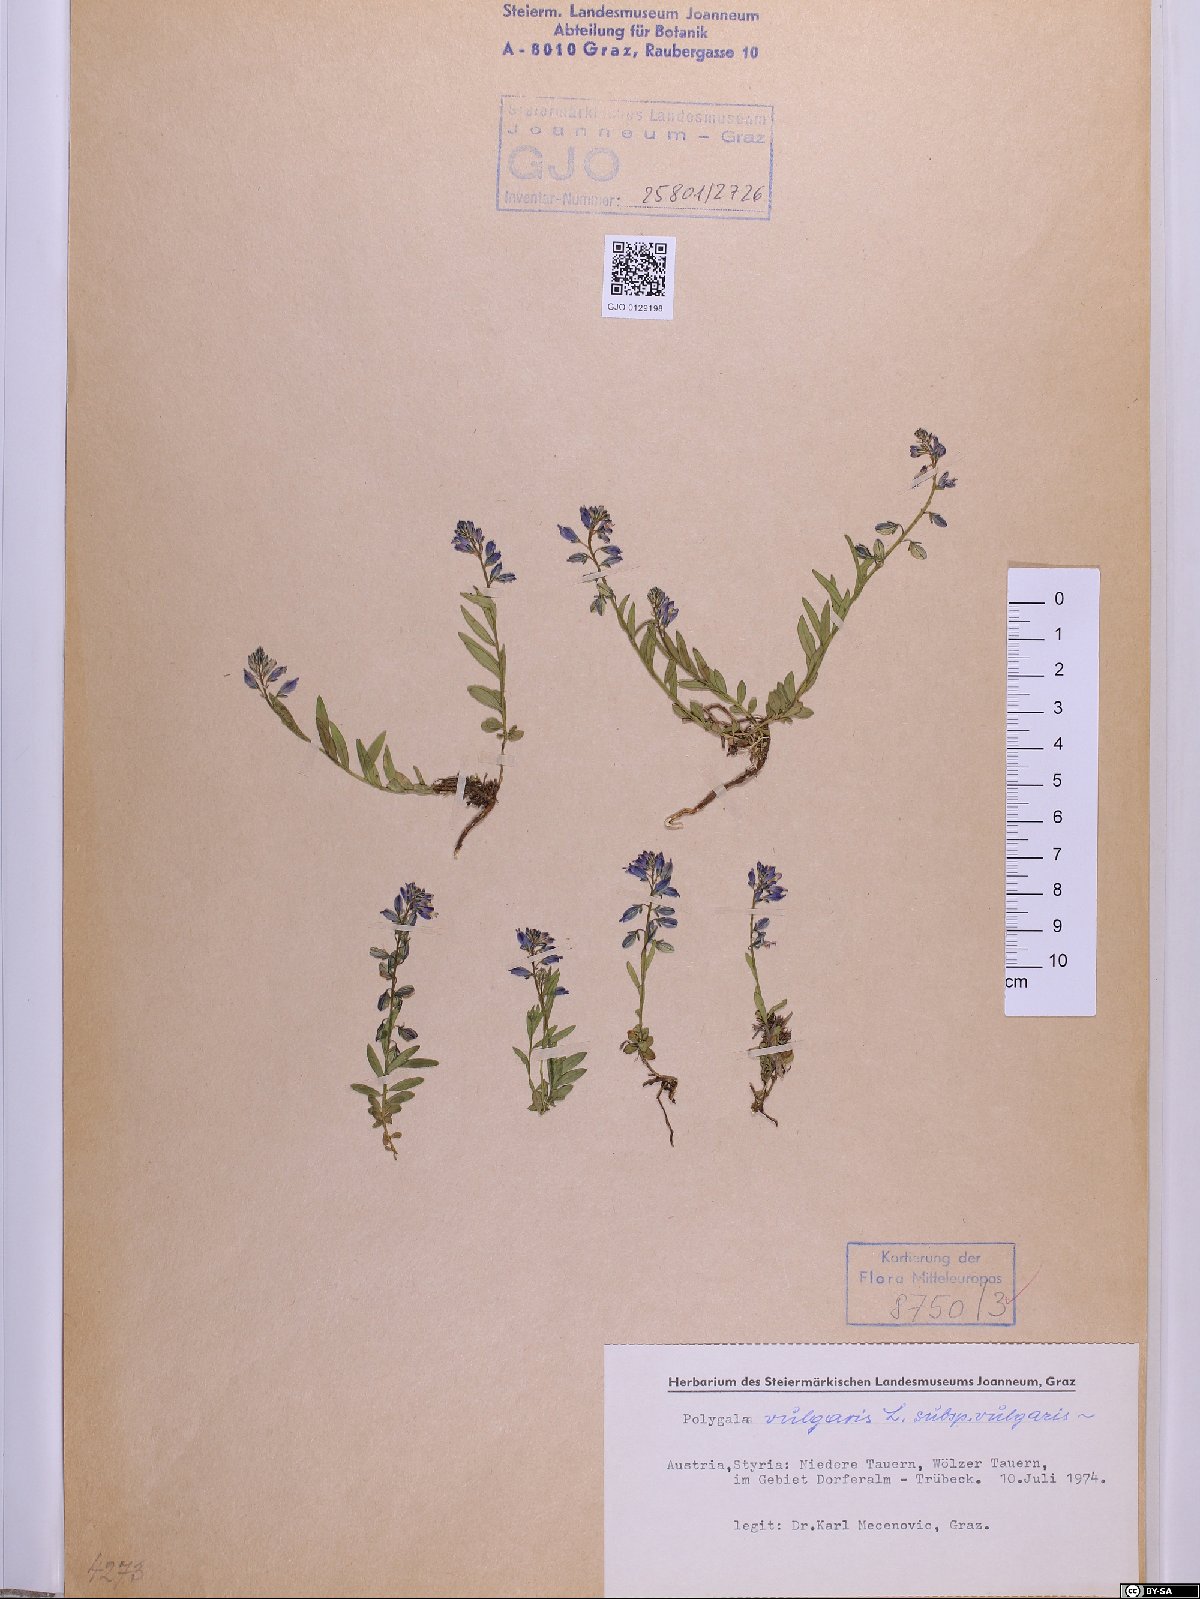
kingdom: Plantae
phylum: Tracheophyta
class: Magnoliopsida
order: Fabales
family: Polygalaceae
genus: Polygala
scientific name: Polygala vulgaris
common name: Common milkwort
